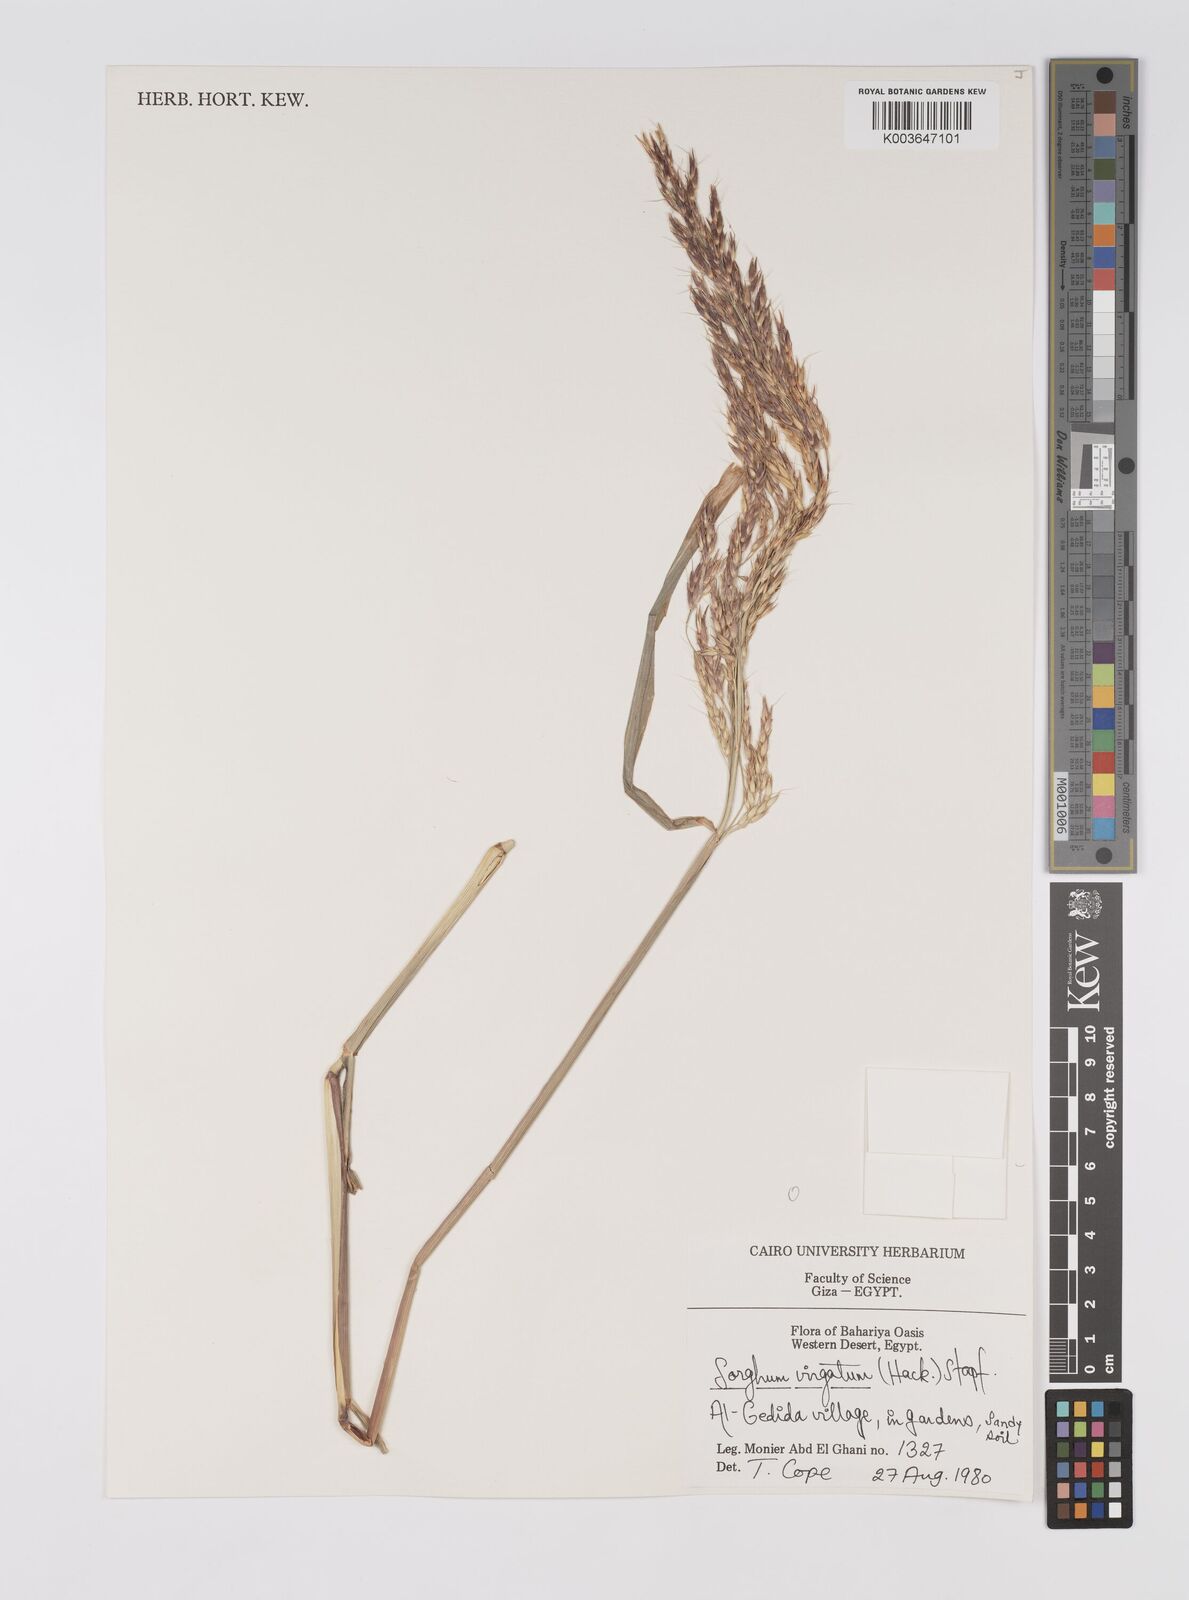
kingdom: Plantae
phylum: Tracheophyta
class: Liliopsida
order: Poales
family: Poaceae
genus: Sorghum
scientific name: Sorghum virgatum
